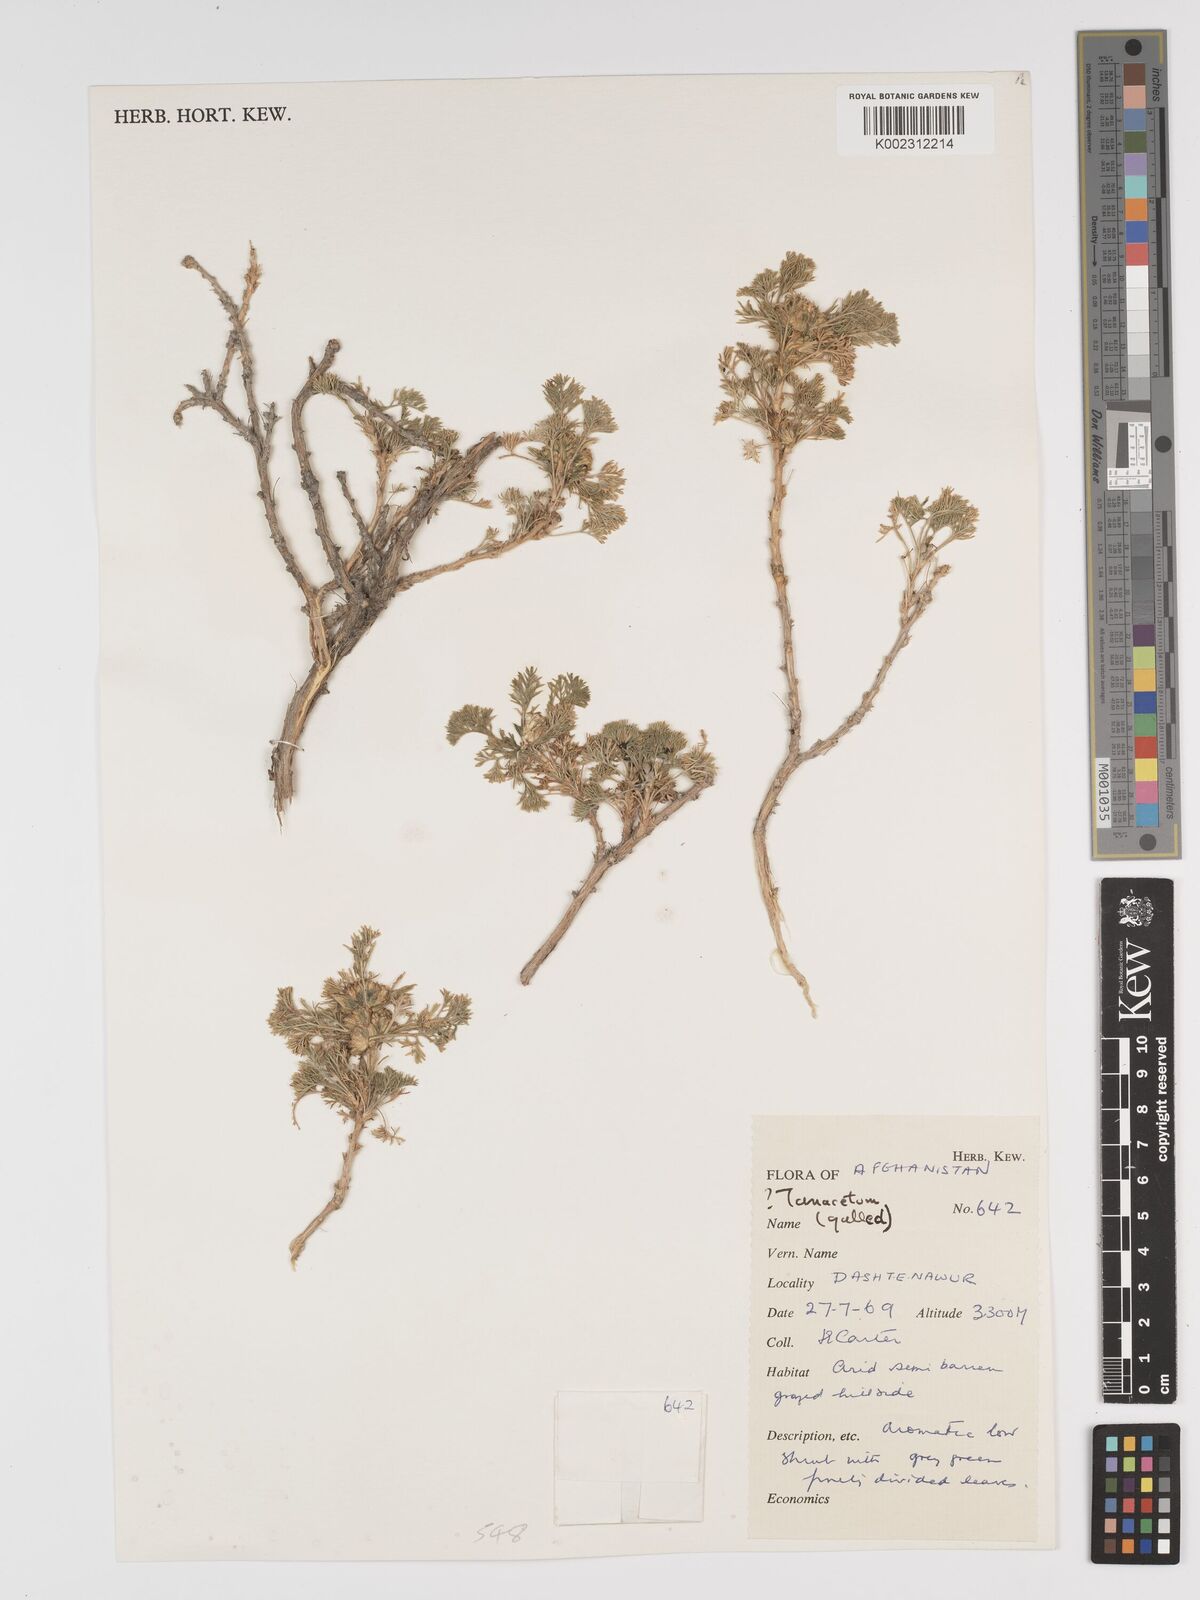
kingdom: Plantae
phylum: Tracheophyta
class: Magnoliopsida
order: Asterales
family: Asteraceae
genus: Tanacetum
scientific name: Tanacetum
